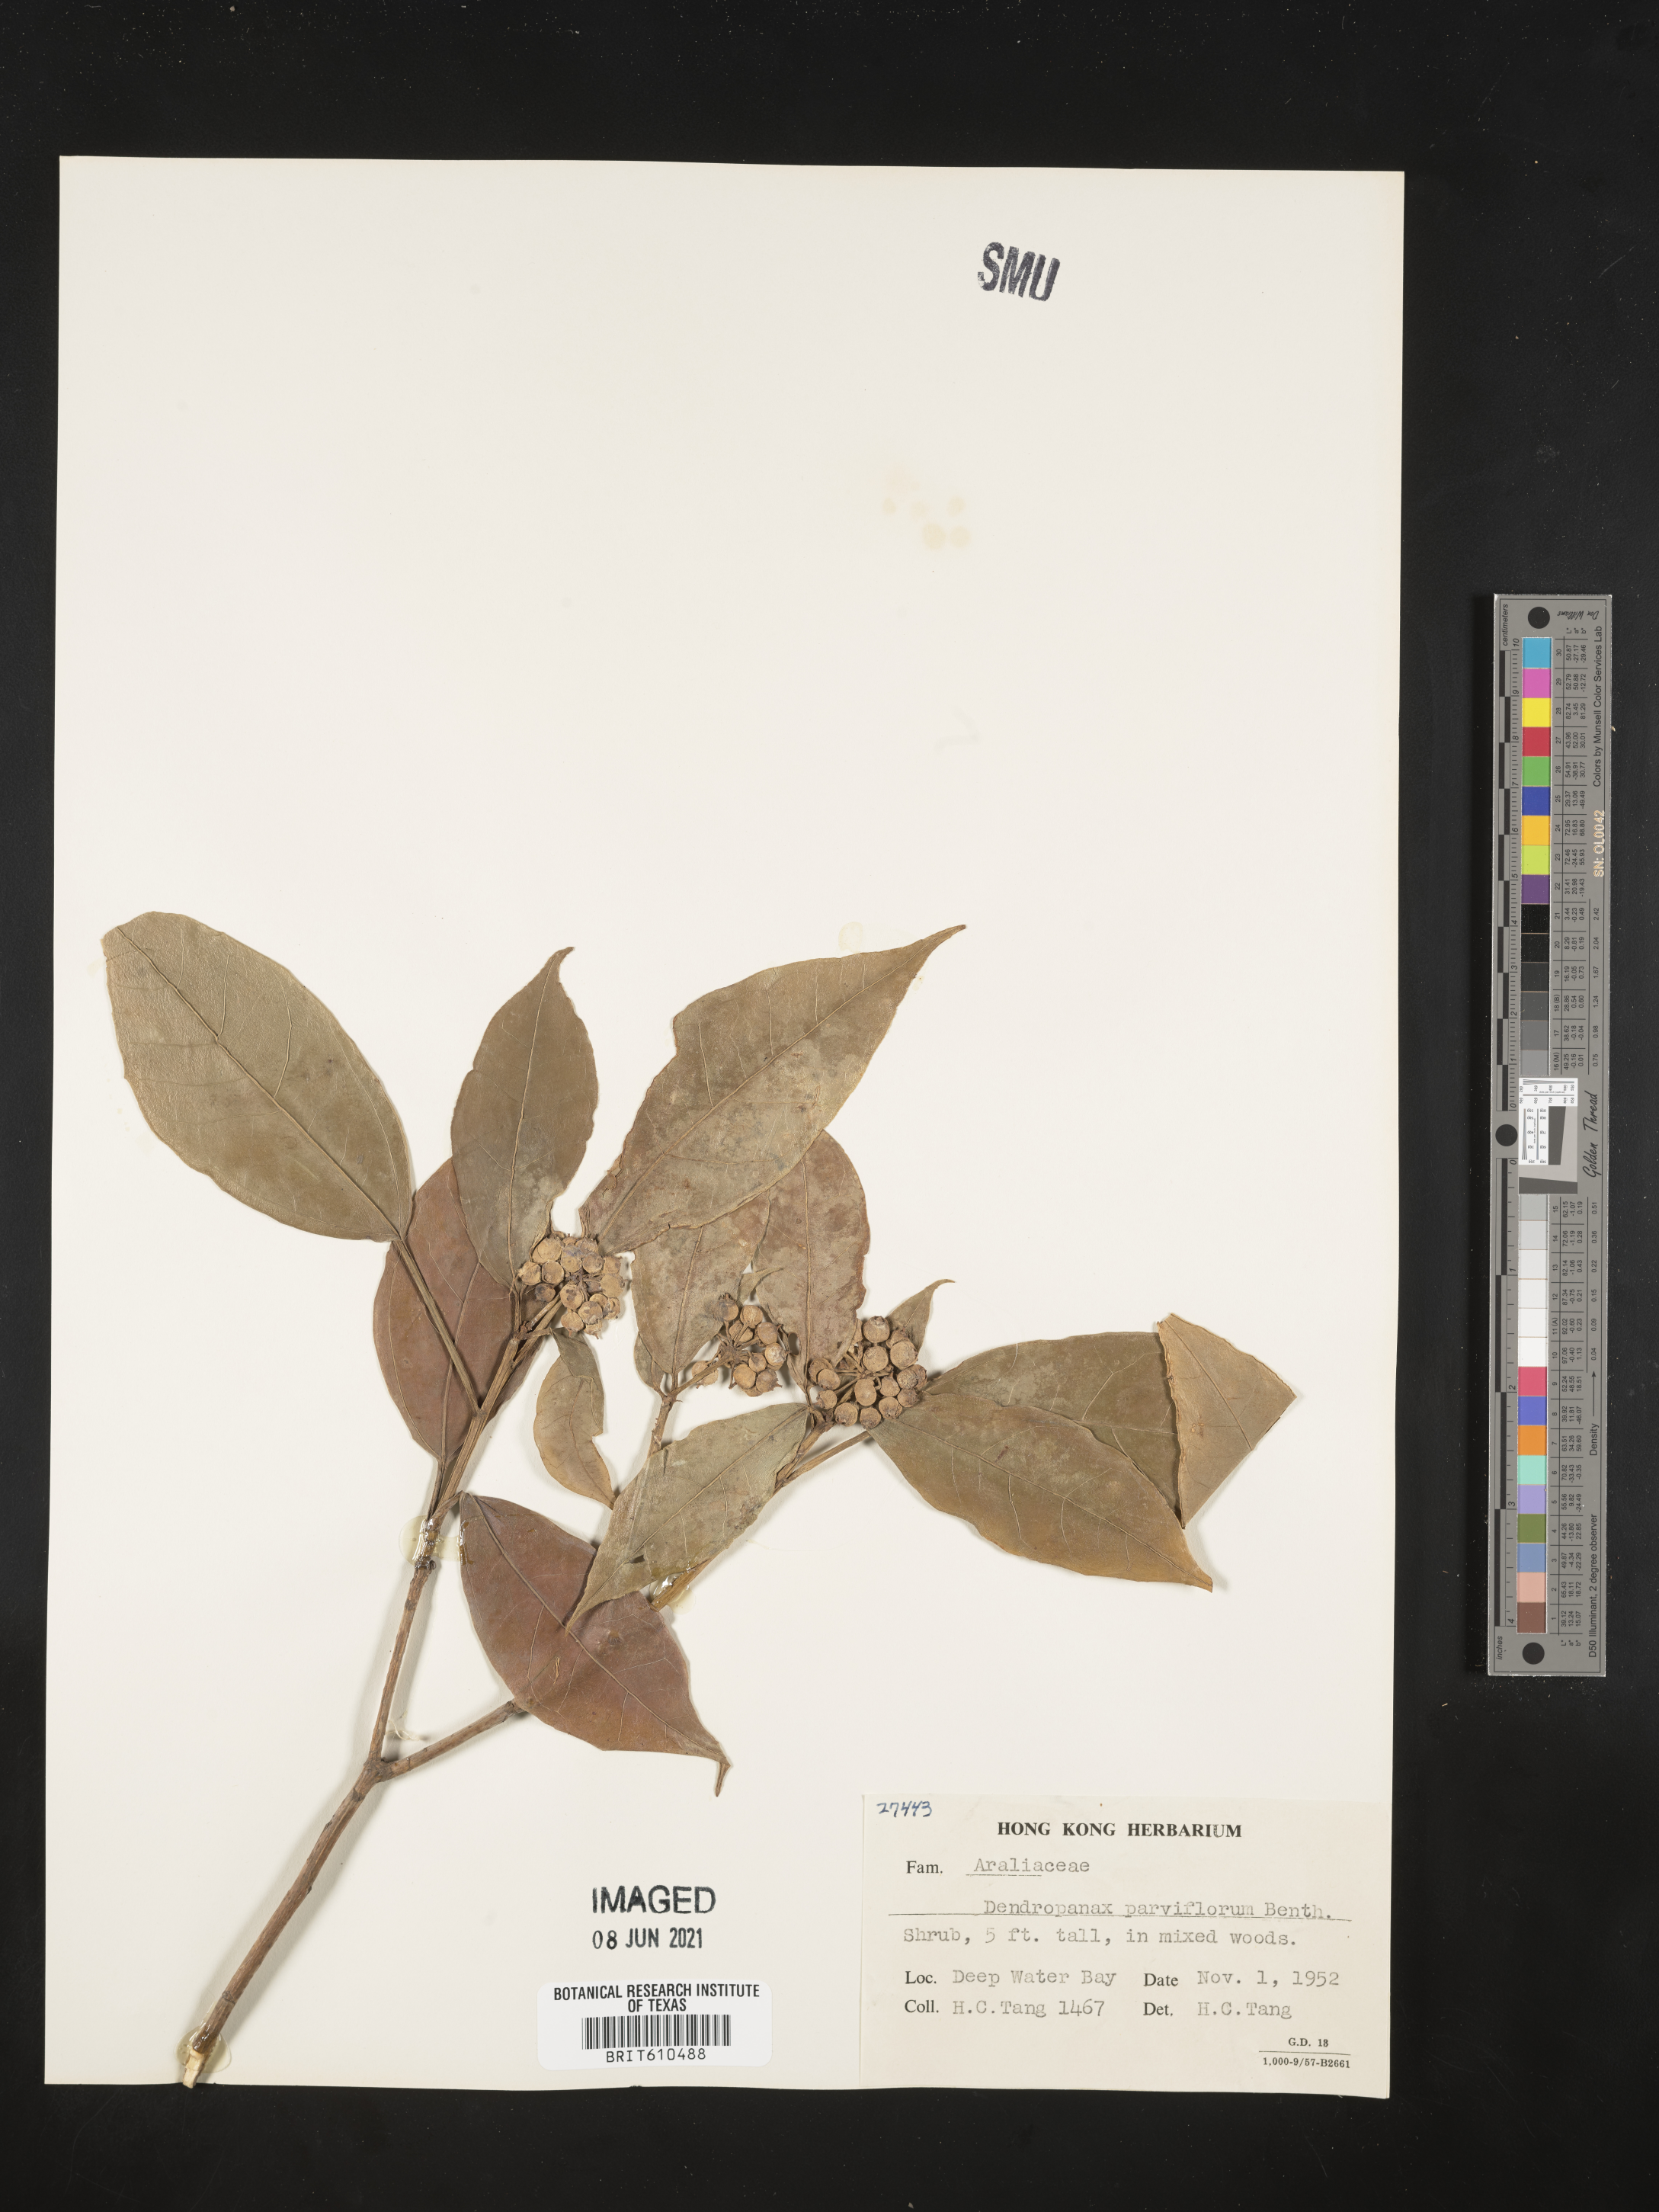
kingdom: Plantae
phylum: Tracheophyta
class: Magnoliopsida
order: Apiales
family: Araliaceae
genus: Dendropanax
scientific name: Dendropanax proteus
